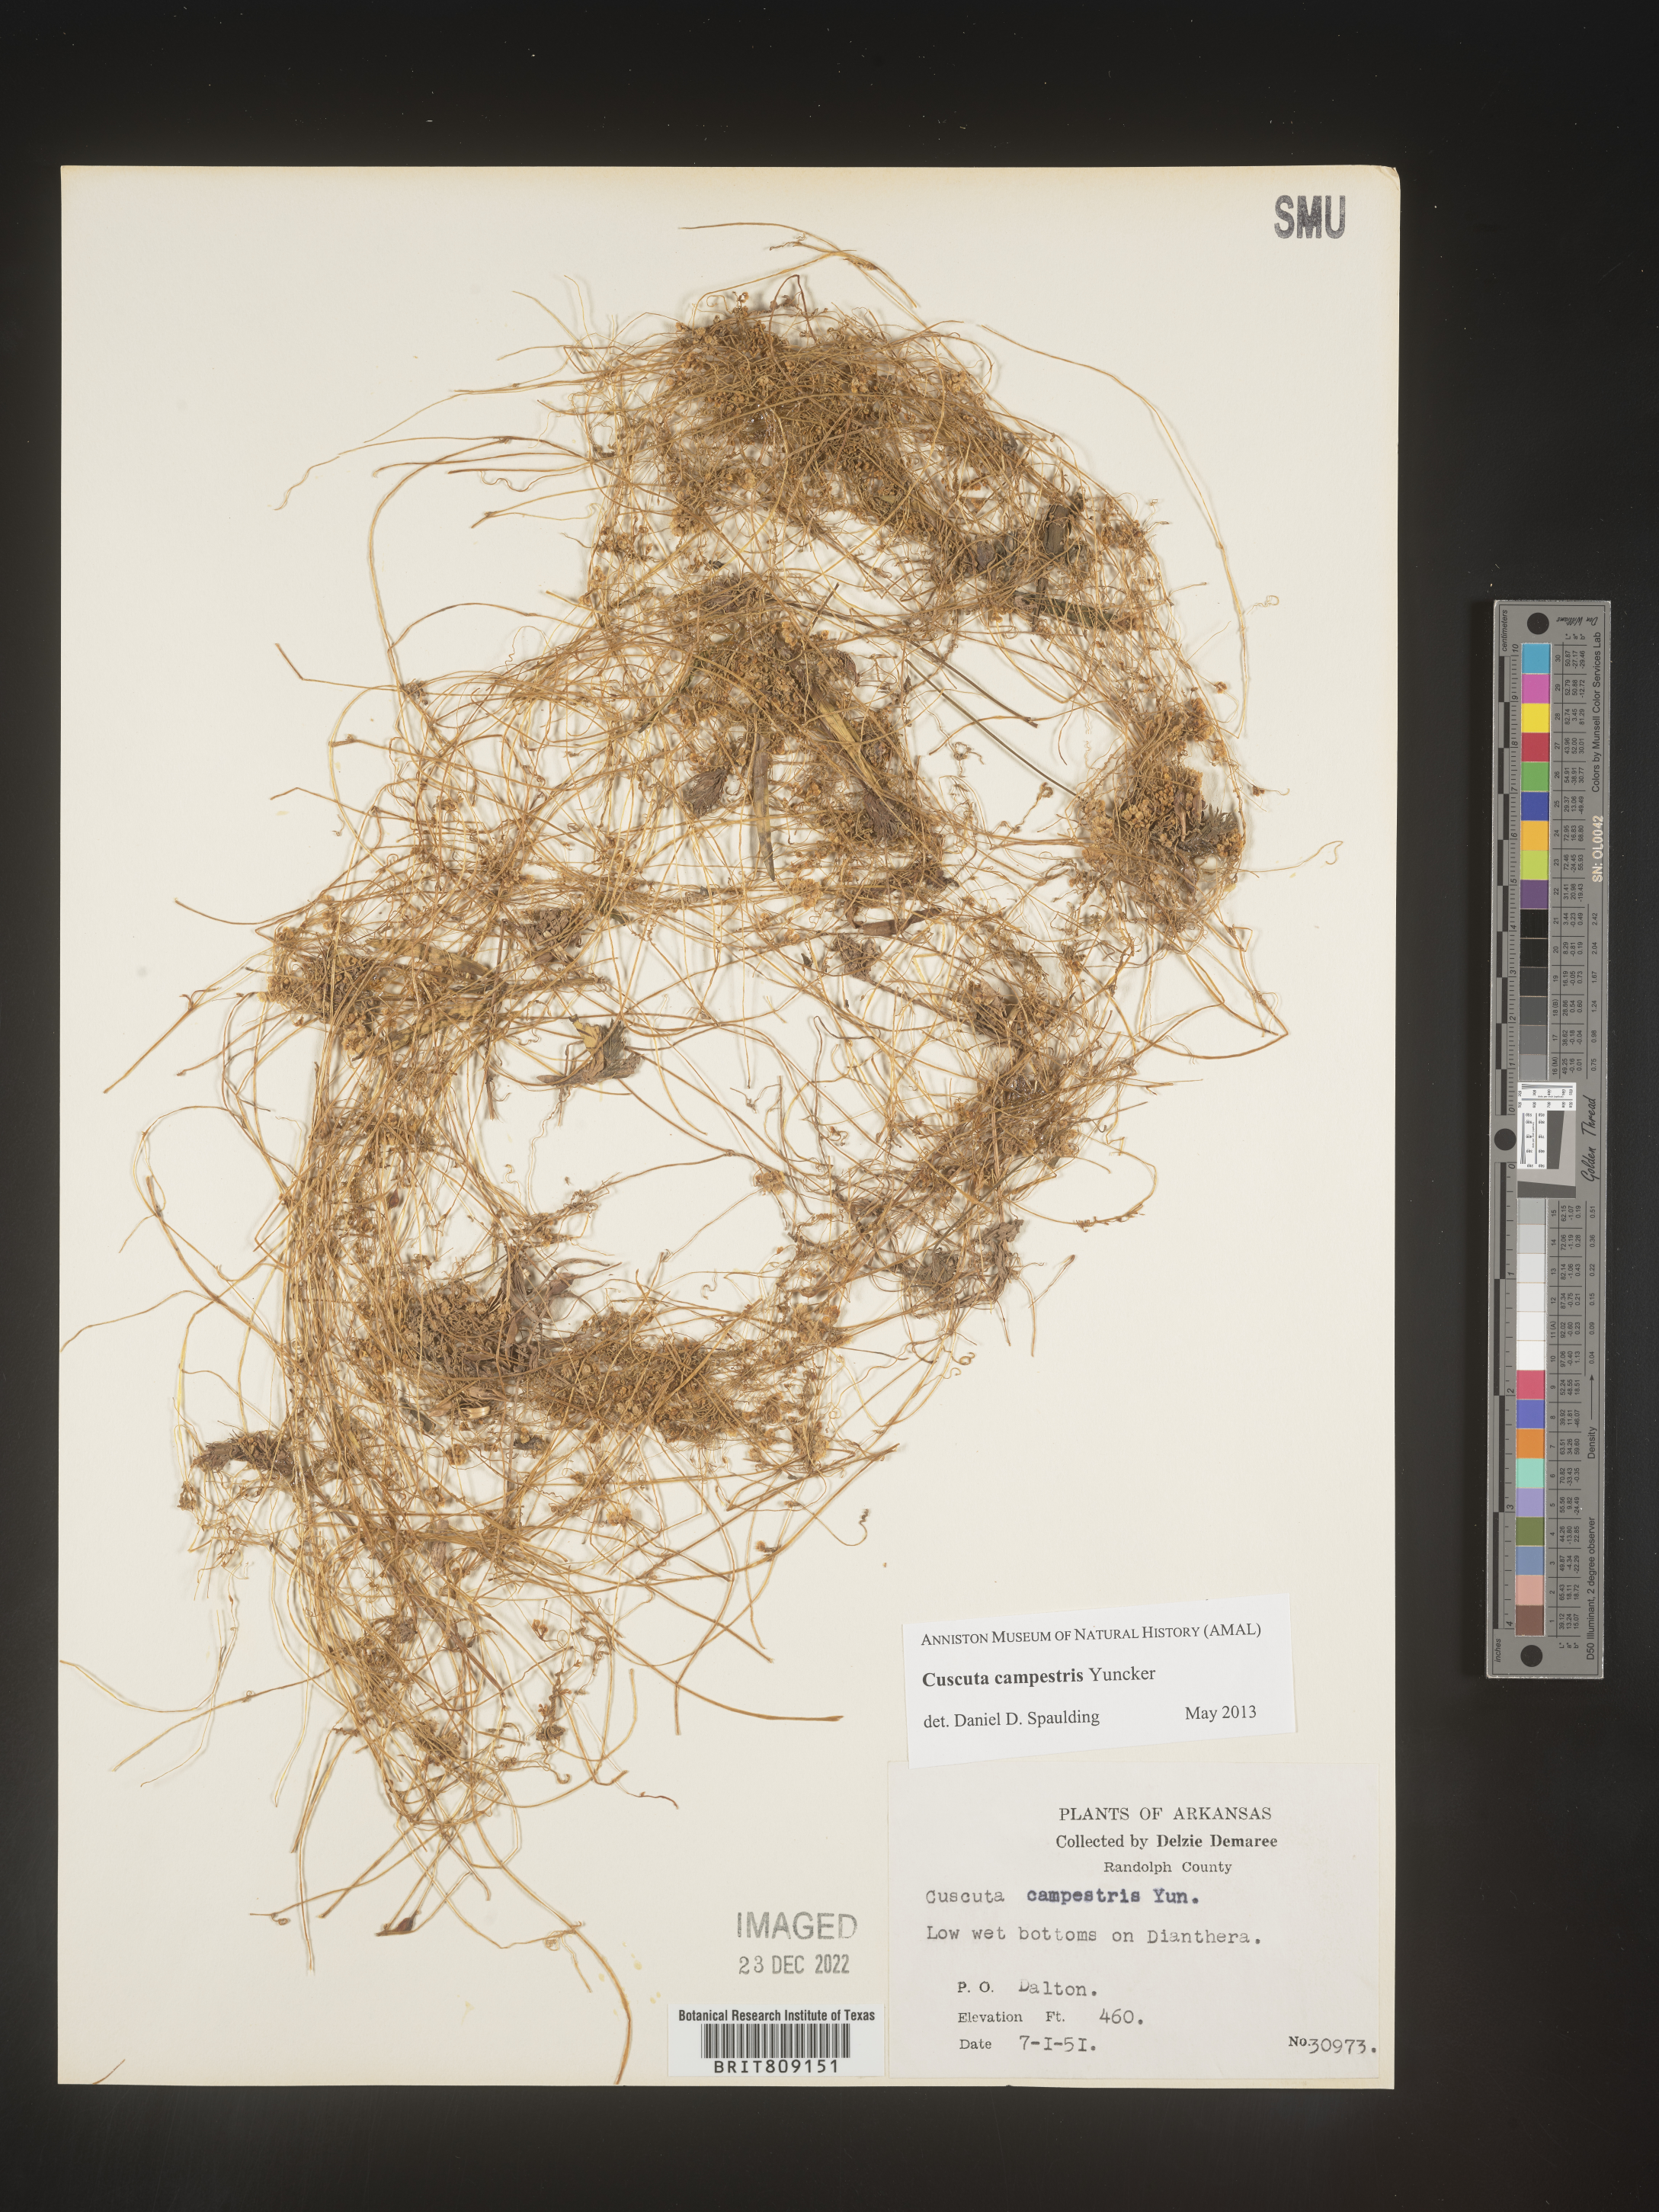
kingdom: Plantae
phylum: Tracheophyta
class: Magnoliopsida
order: Solanales
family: Convolvulaceae
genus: Cuscuta
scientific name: Cuscuta campestris
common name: Yellow dodder
